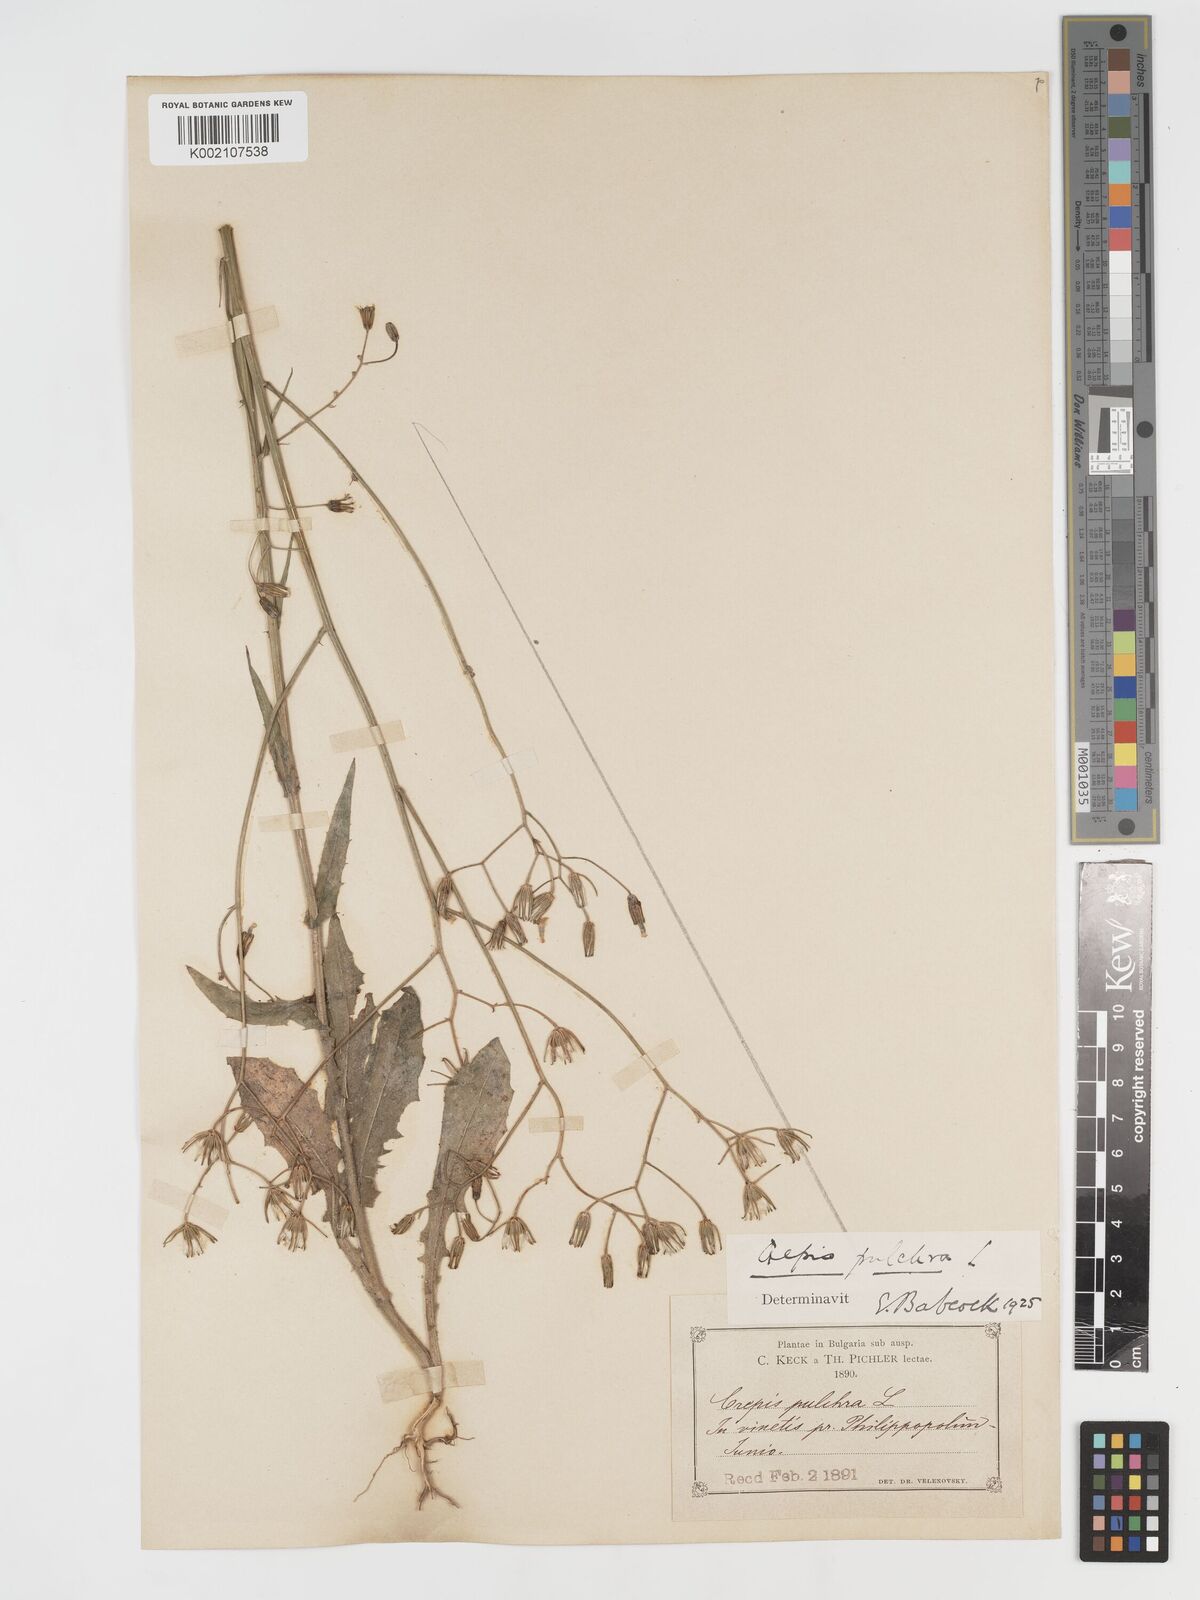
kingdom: Plantae
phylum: Tracheophyta
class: Magnoliopsida
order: Asterales
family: Asteraceae
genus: Crepis
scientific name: Crepis pulchra
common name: Hawk's-beard
